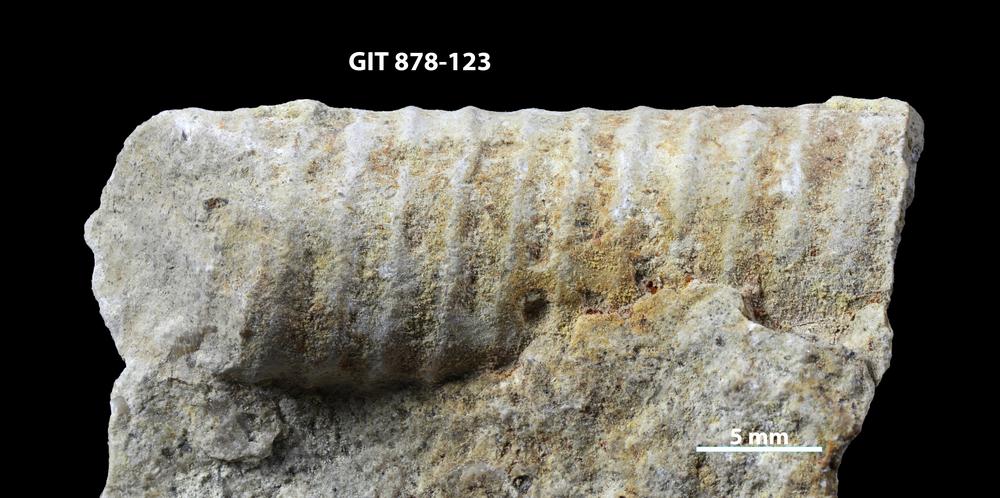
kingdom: Animalia
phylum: Mollusca
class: Cephalopoda
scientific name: Cephalopoda
